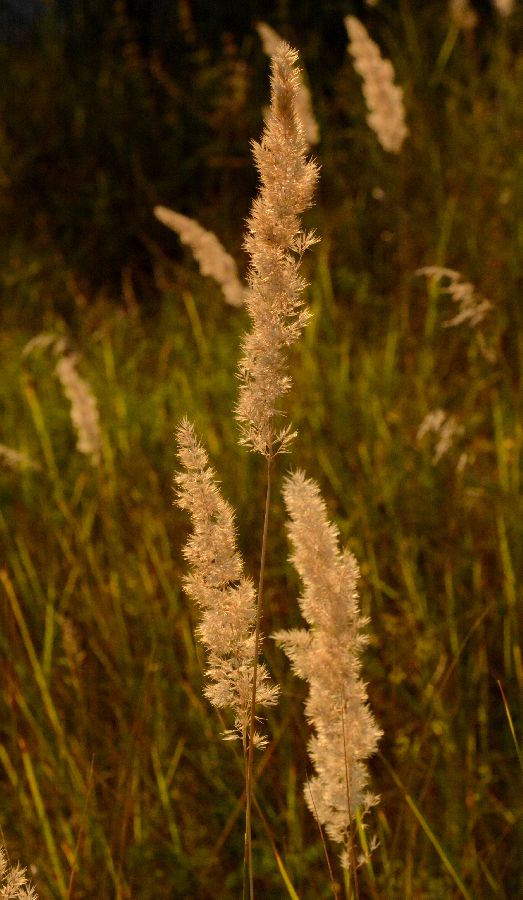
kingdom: Plantae
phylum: Tracheophyta
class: Liliopsida
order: Poales
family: Poaceae
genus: Calamagrostis
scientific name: Calamagrostis epigejos
